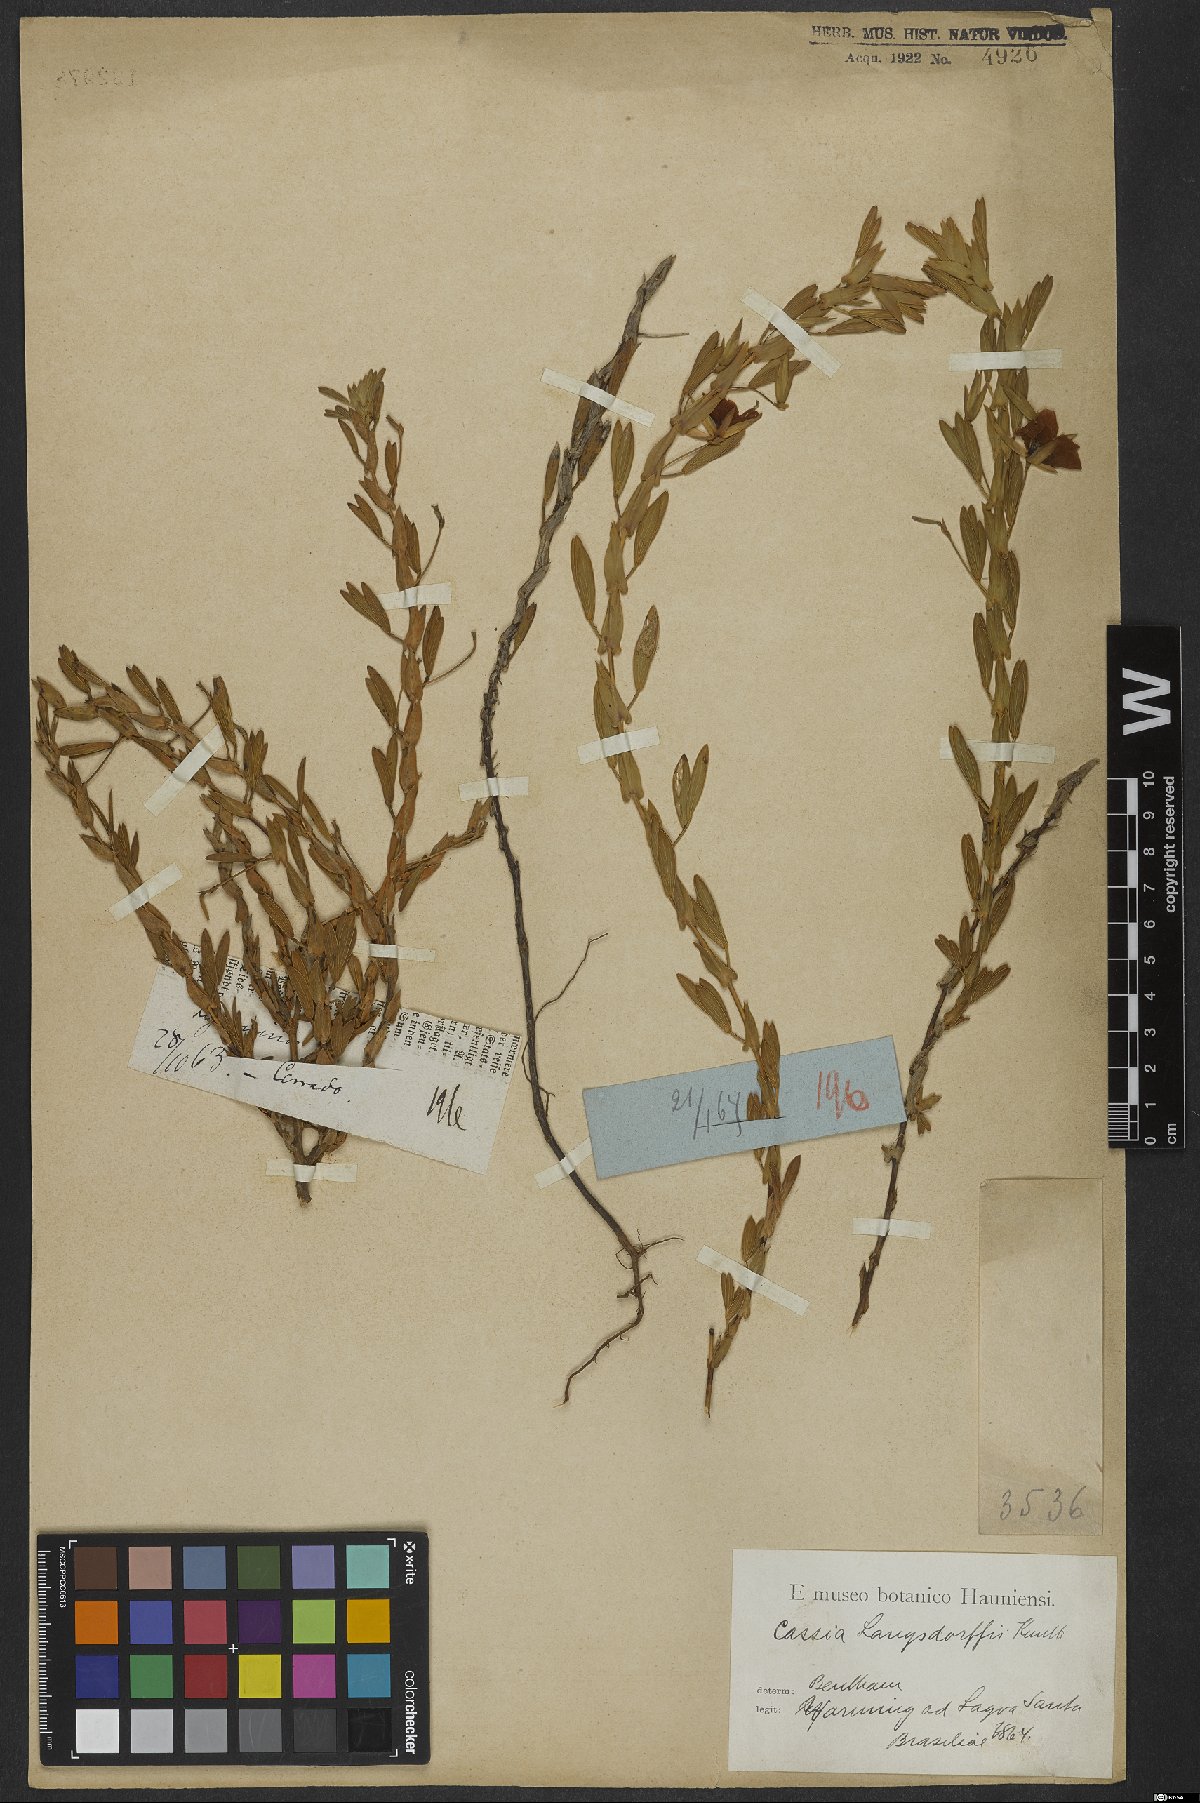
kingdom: Plantae
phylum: Tracheophyta
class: Magnoliopsida
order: Fabales
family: Fabaceae
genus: Chamaecrista
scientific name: Chamaecrista langsdorffii
